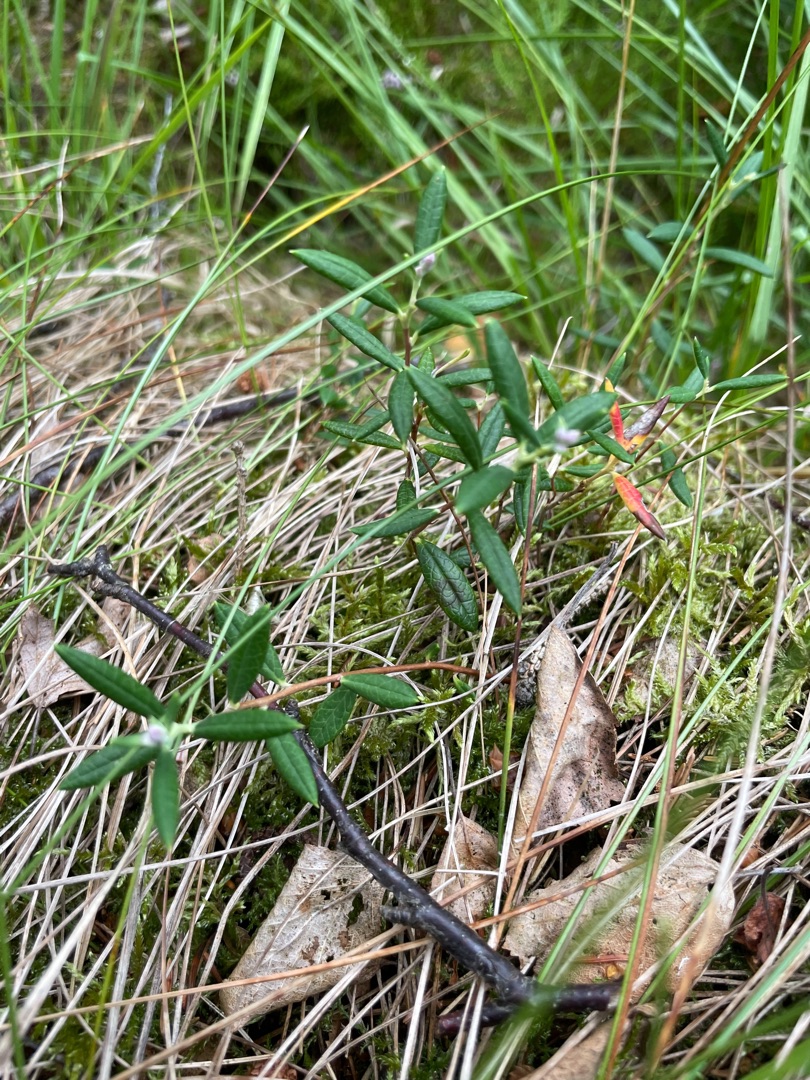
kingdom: Plantae
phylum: Tracheophyta
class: Magnoliopsida
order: Ericales
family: Ericaceae
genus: Andromeda
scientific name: Andromeda polifolia
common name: Rosmarinlyng
